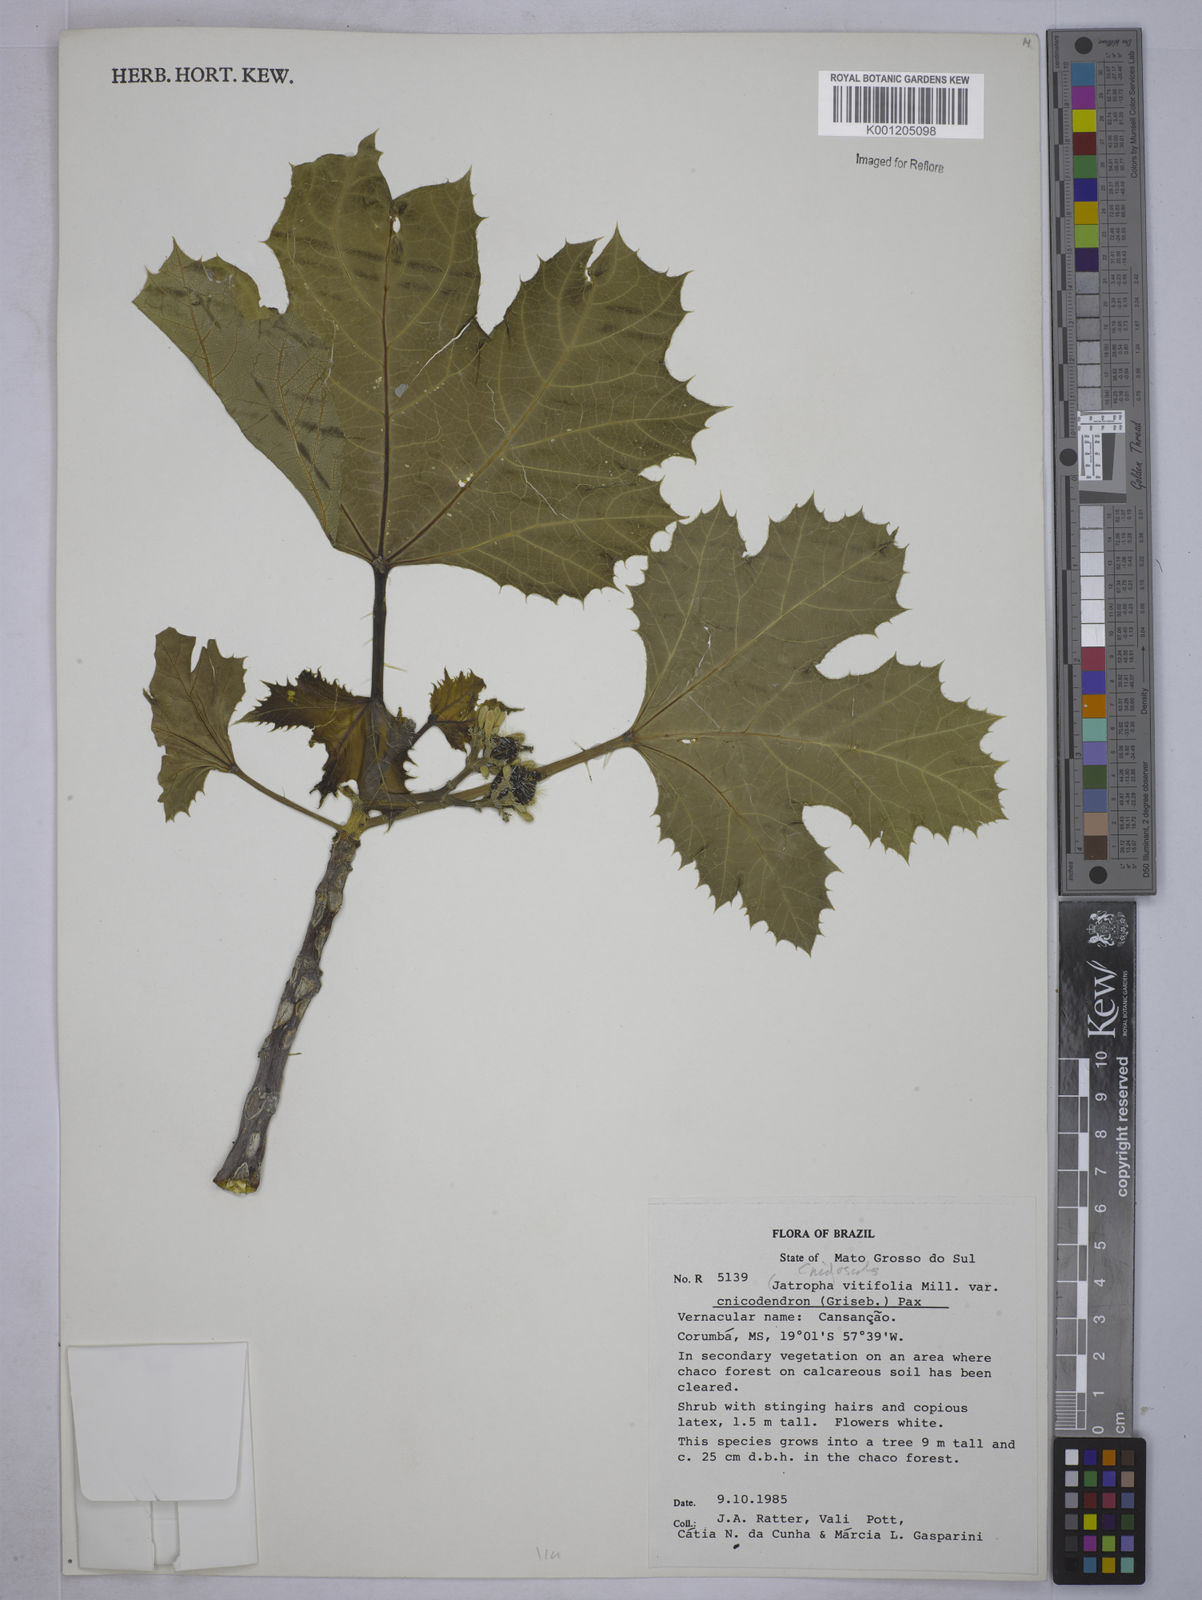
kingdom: Plantae
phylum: Tracheophyta
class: Magnoliopsida
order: Malpighiales
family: Euphorbiaceae
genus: Cnidoscolus
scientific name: Cnidoscolus vitifolius
